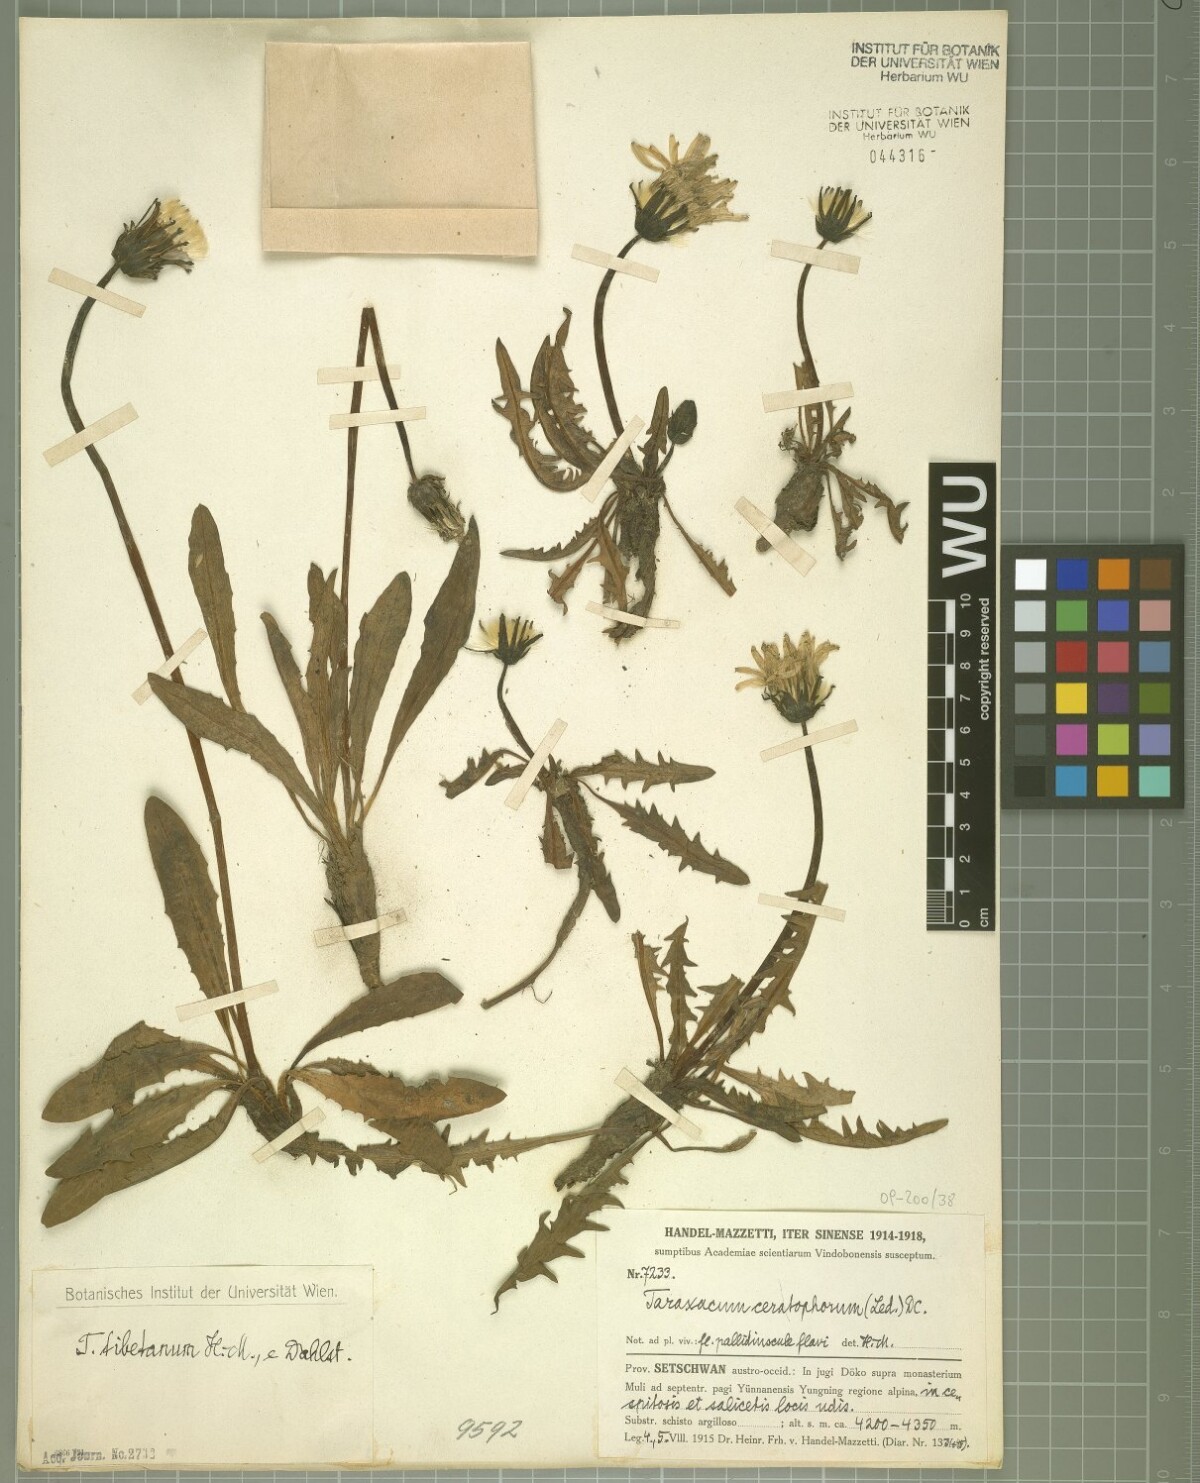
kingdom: Plantae
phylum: Tracheophyta
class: Magnoliopsida
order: Asterales
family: Asteraceae
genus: Taraxacum
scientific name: Taraxacum tibetanum
